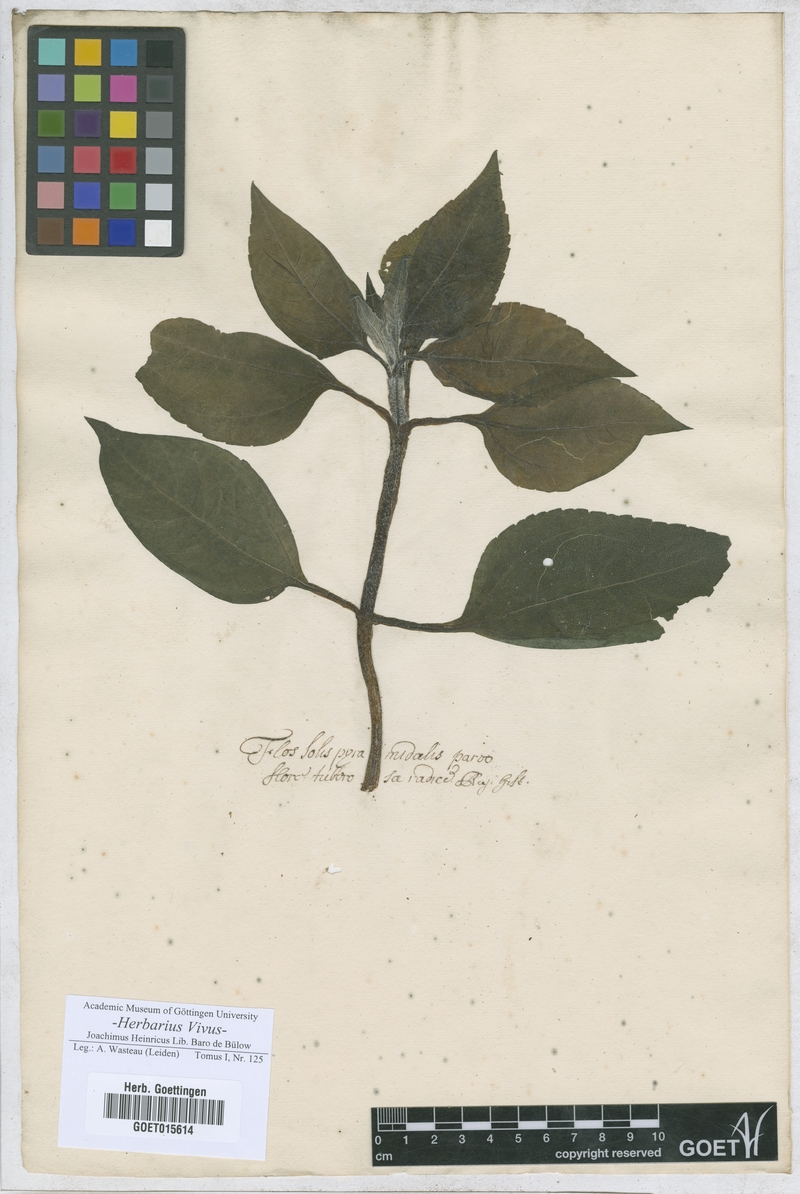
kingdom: Plantae
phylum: Tracheophyta
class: Magnoliopsida
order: Asterales
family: Asteraceae
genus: Helenium
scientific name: Helenium
